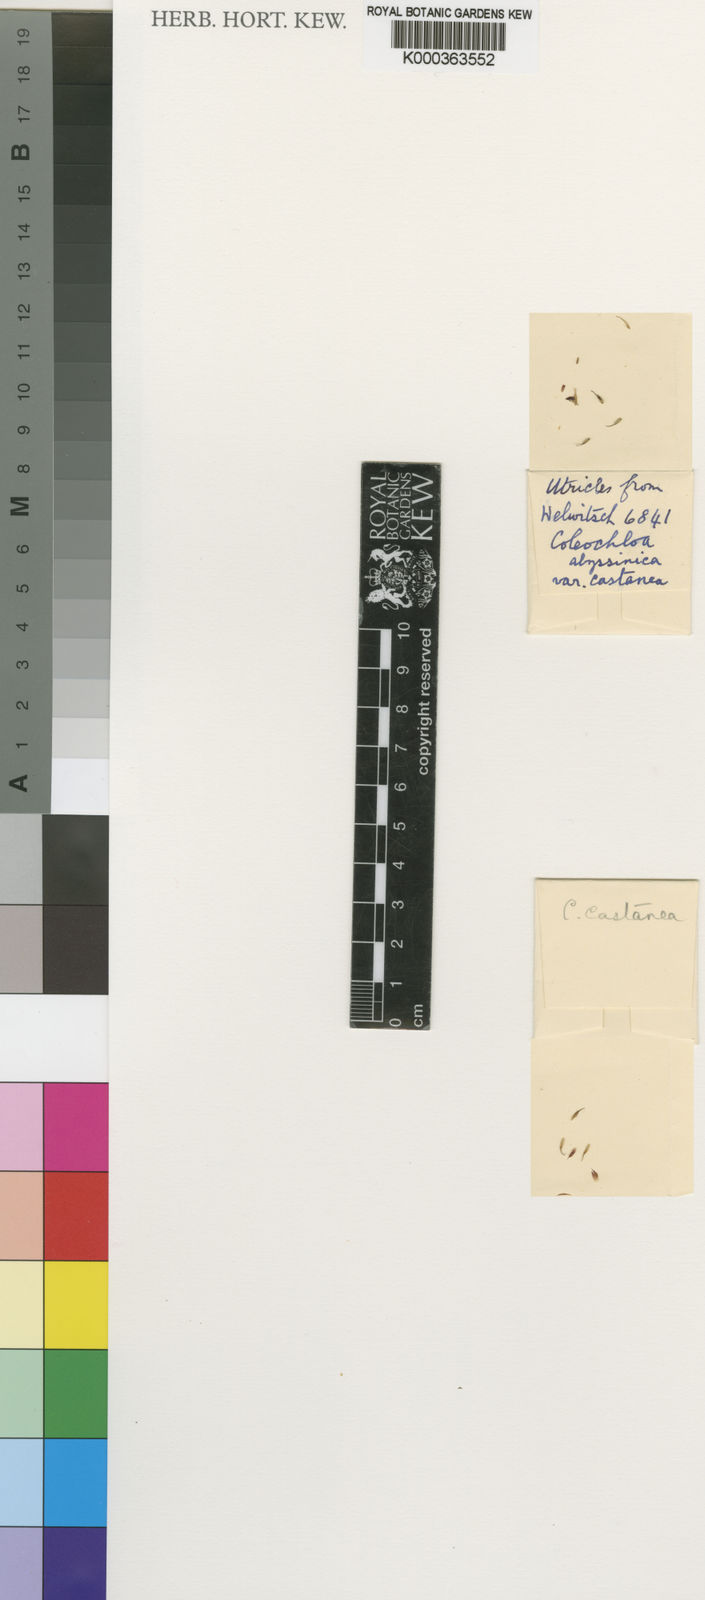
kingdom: Plantae
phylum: Tracheophyta
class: Liliopsida
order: Poales
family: Cyperaceae
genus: Coleochloa
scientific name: Coleochloa abyssinica
